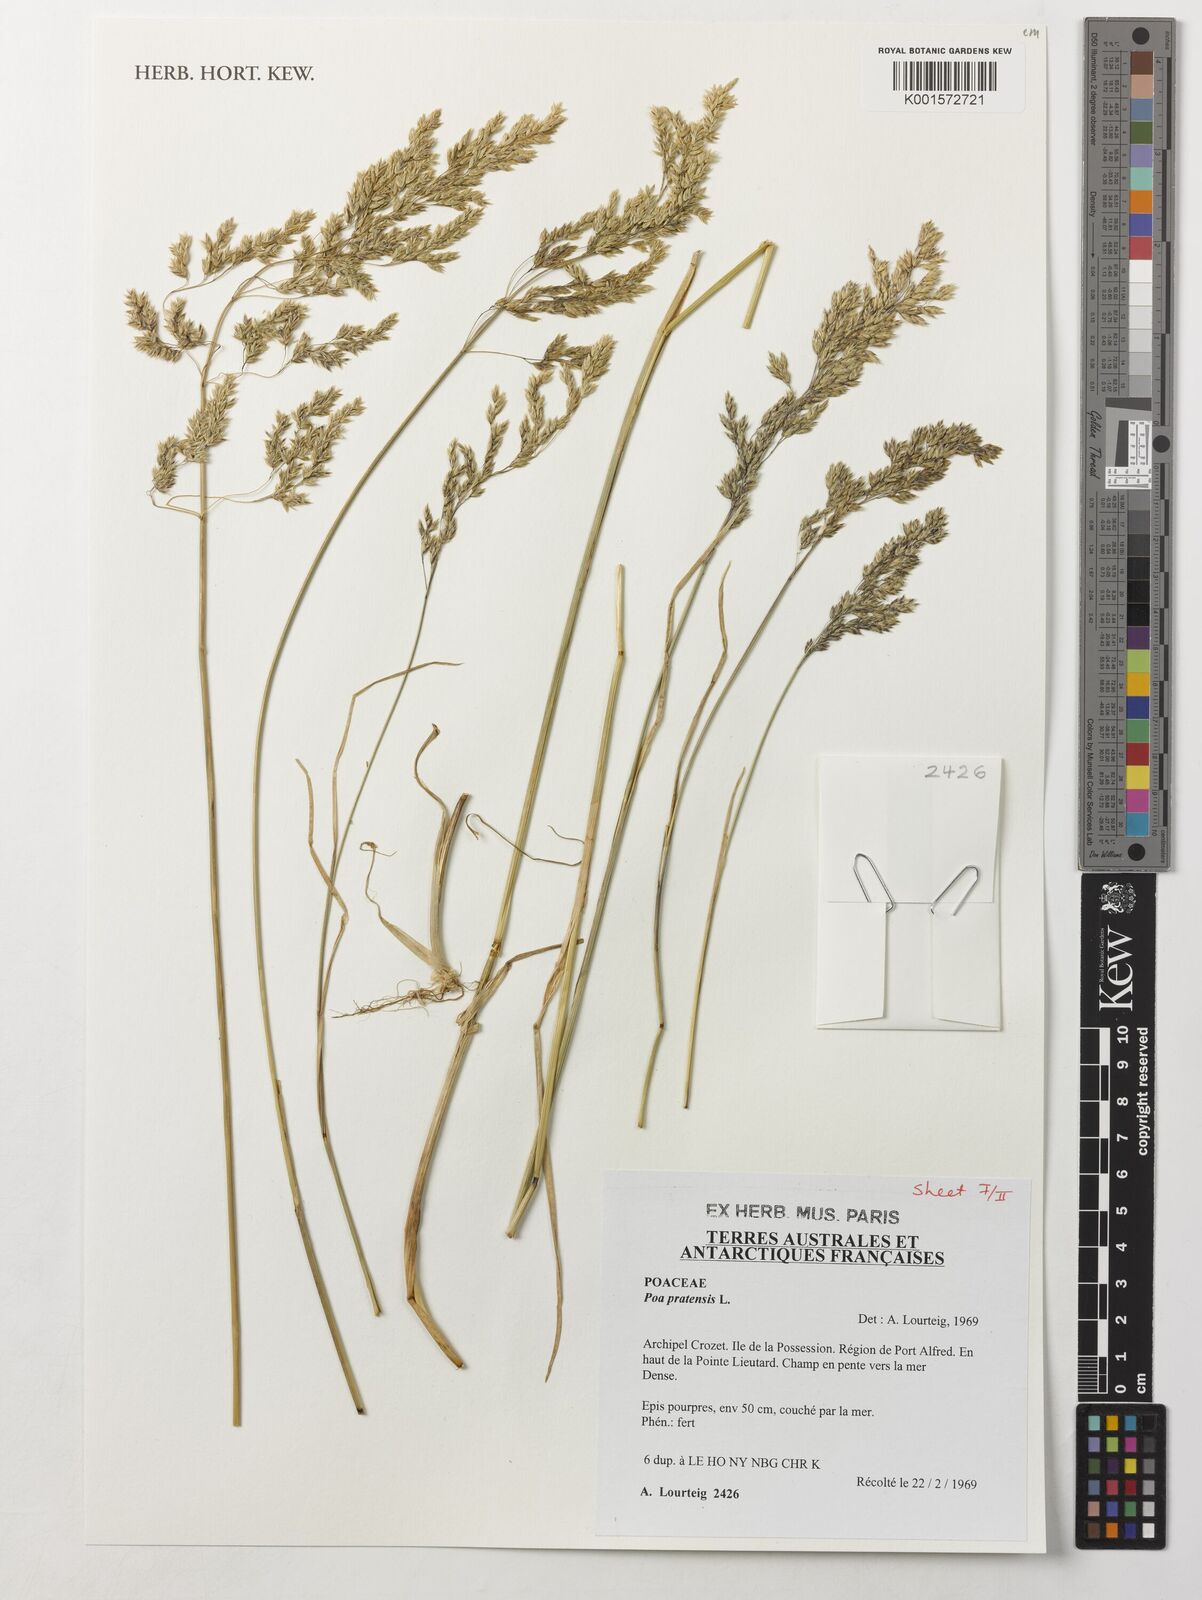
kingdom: Plantae
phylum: Tracheophyta
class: Liliopsida
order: Poales
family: Poaceae
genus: Poa
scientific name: Poa pratensis
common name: Kentucky bluegrass
